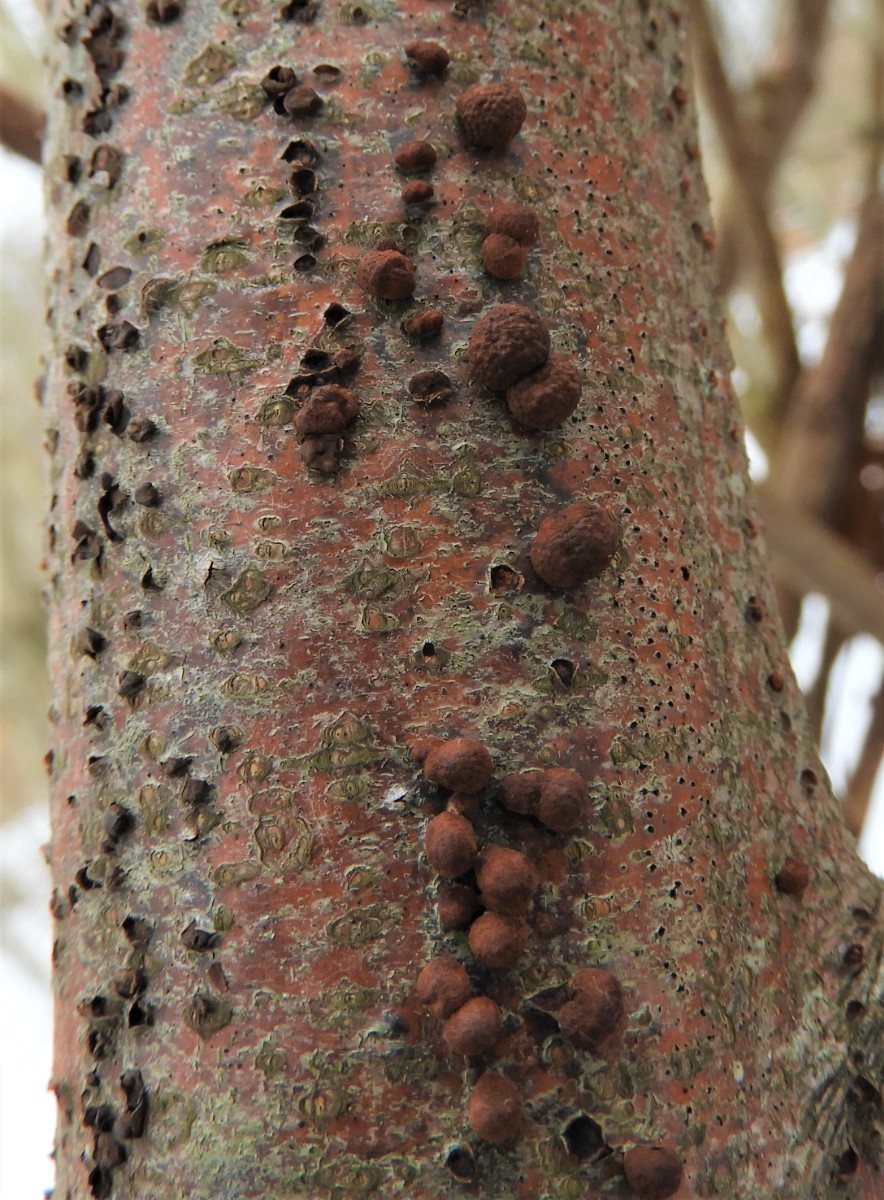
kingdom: Fungi
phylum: Ascomycota
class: Sordariomycetes
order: Xylariales
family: Hypoxylaceae
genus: Hypoxylon
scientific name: Hypoxylon fragiforme
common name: kuljordbær
